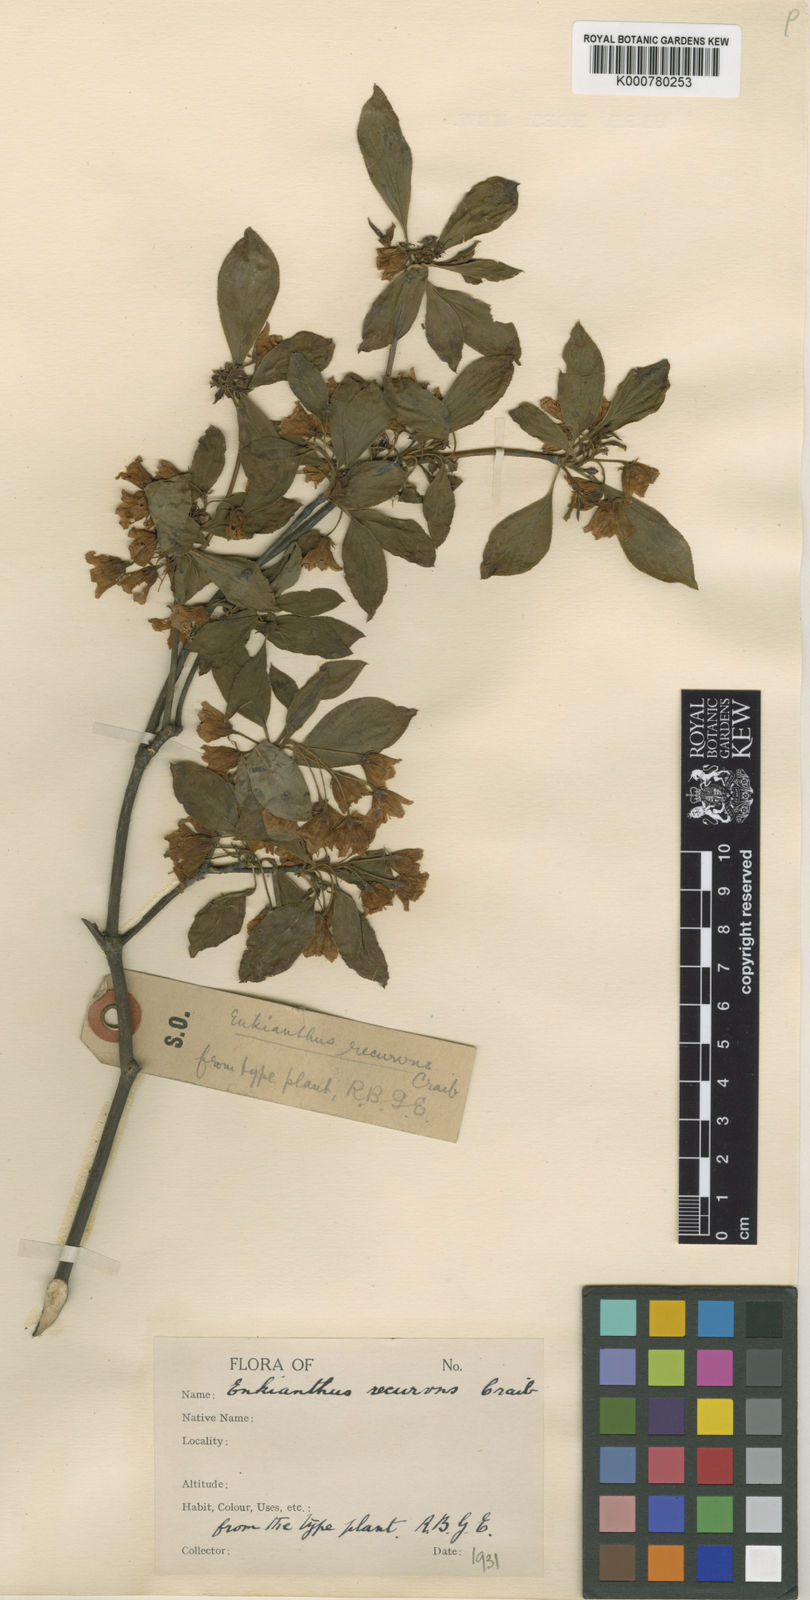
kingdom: Plantae
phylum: Tracheophyta
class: Magnoliopsida
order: Ericales
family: Ericaceae
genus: Enkianthus
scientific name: Enkianthus campanulatus
